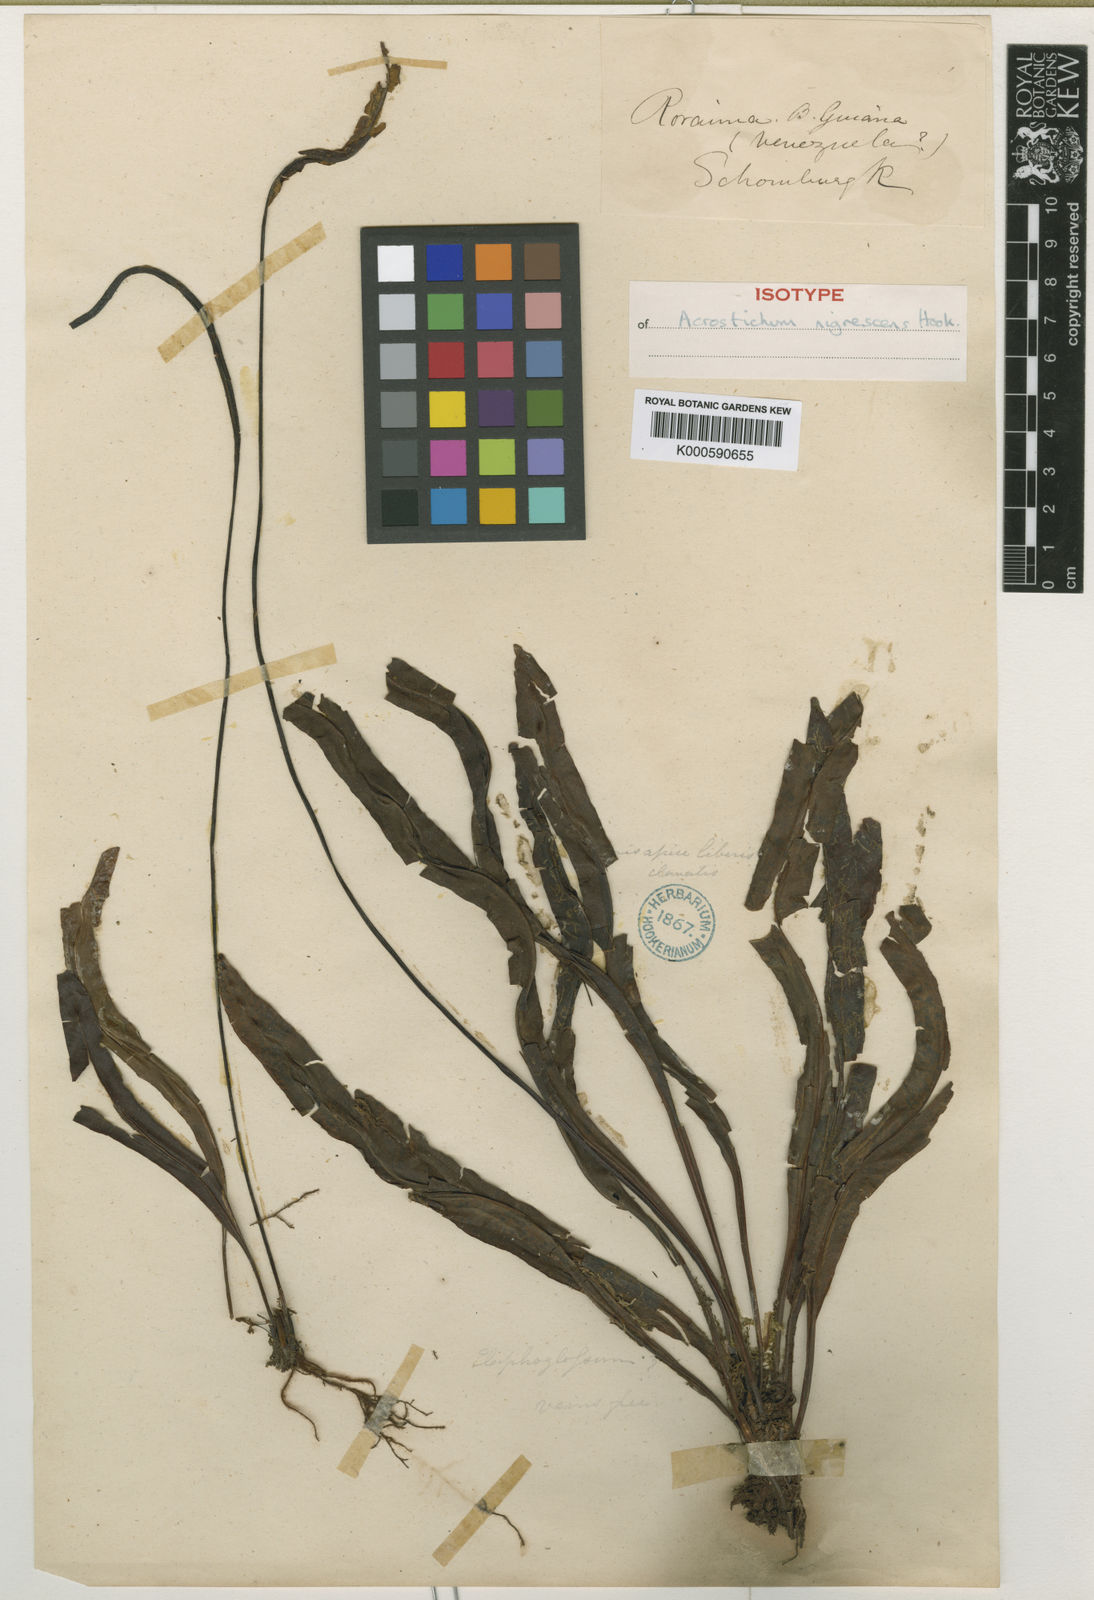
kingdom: Plantae
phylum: Tracheophyta
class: Polypodiopsida
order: Polypodiales
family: Dryopteridaceae
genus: Elaphoglossum
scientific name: Elaphoglossum nigrescens
